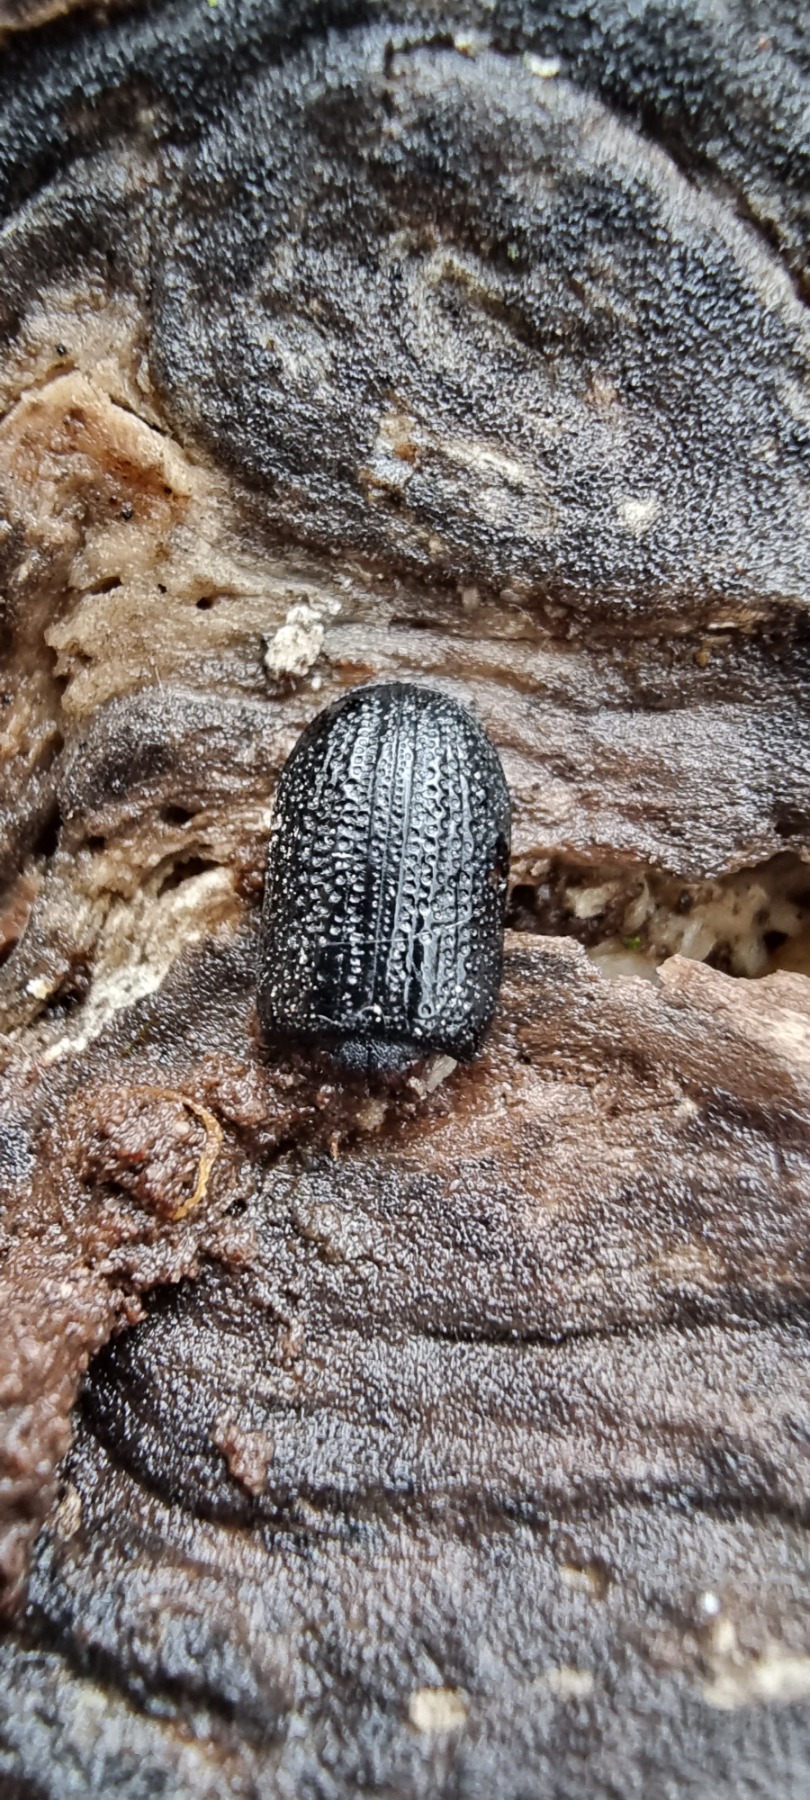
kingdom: Animalia
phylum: Arthropoda
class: Insecta
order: Coleoptera
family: Lucanidae
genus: Sinodendron
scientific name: Sinodendron cylindricum
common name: Valsehjort
